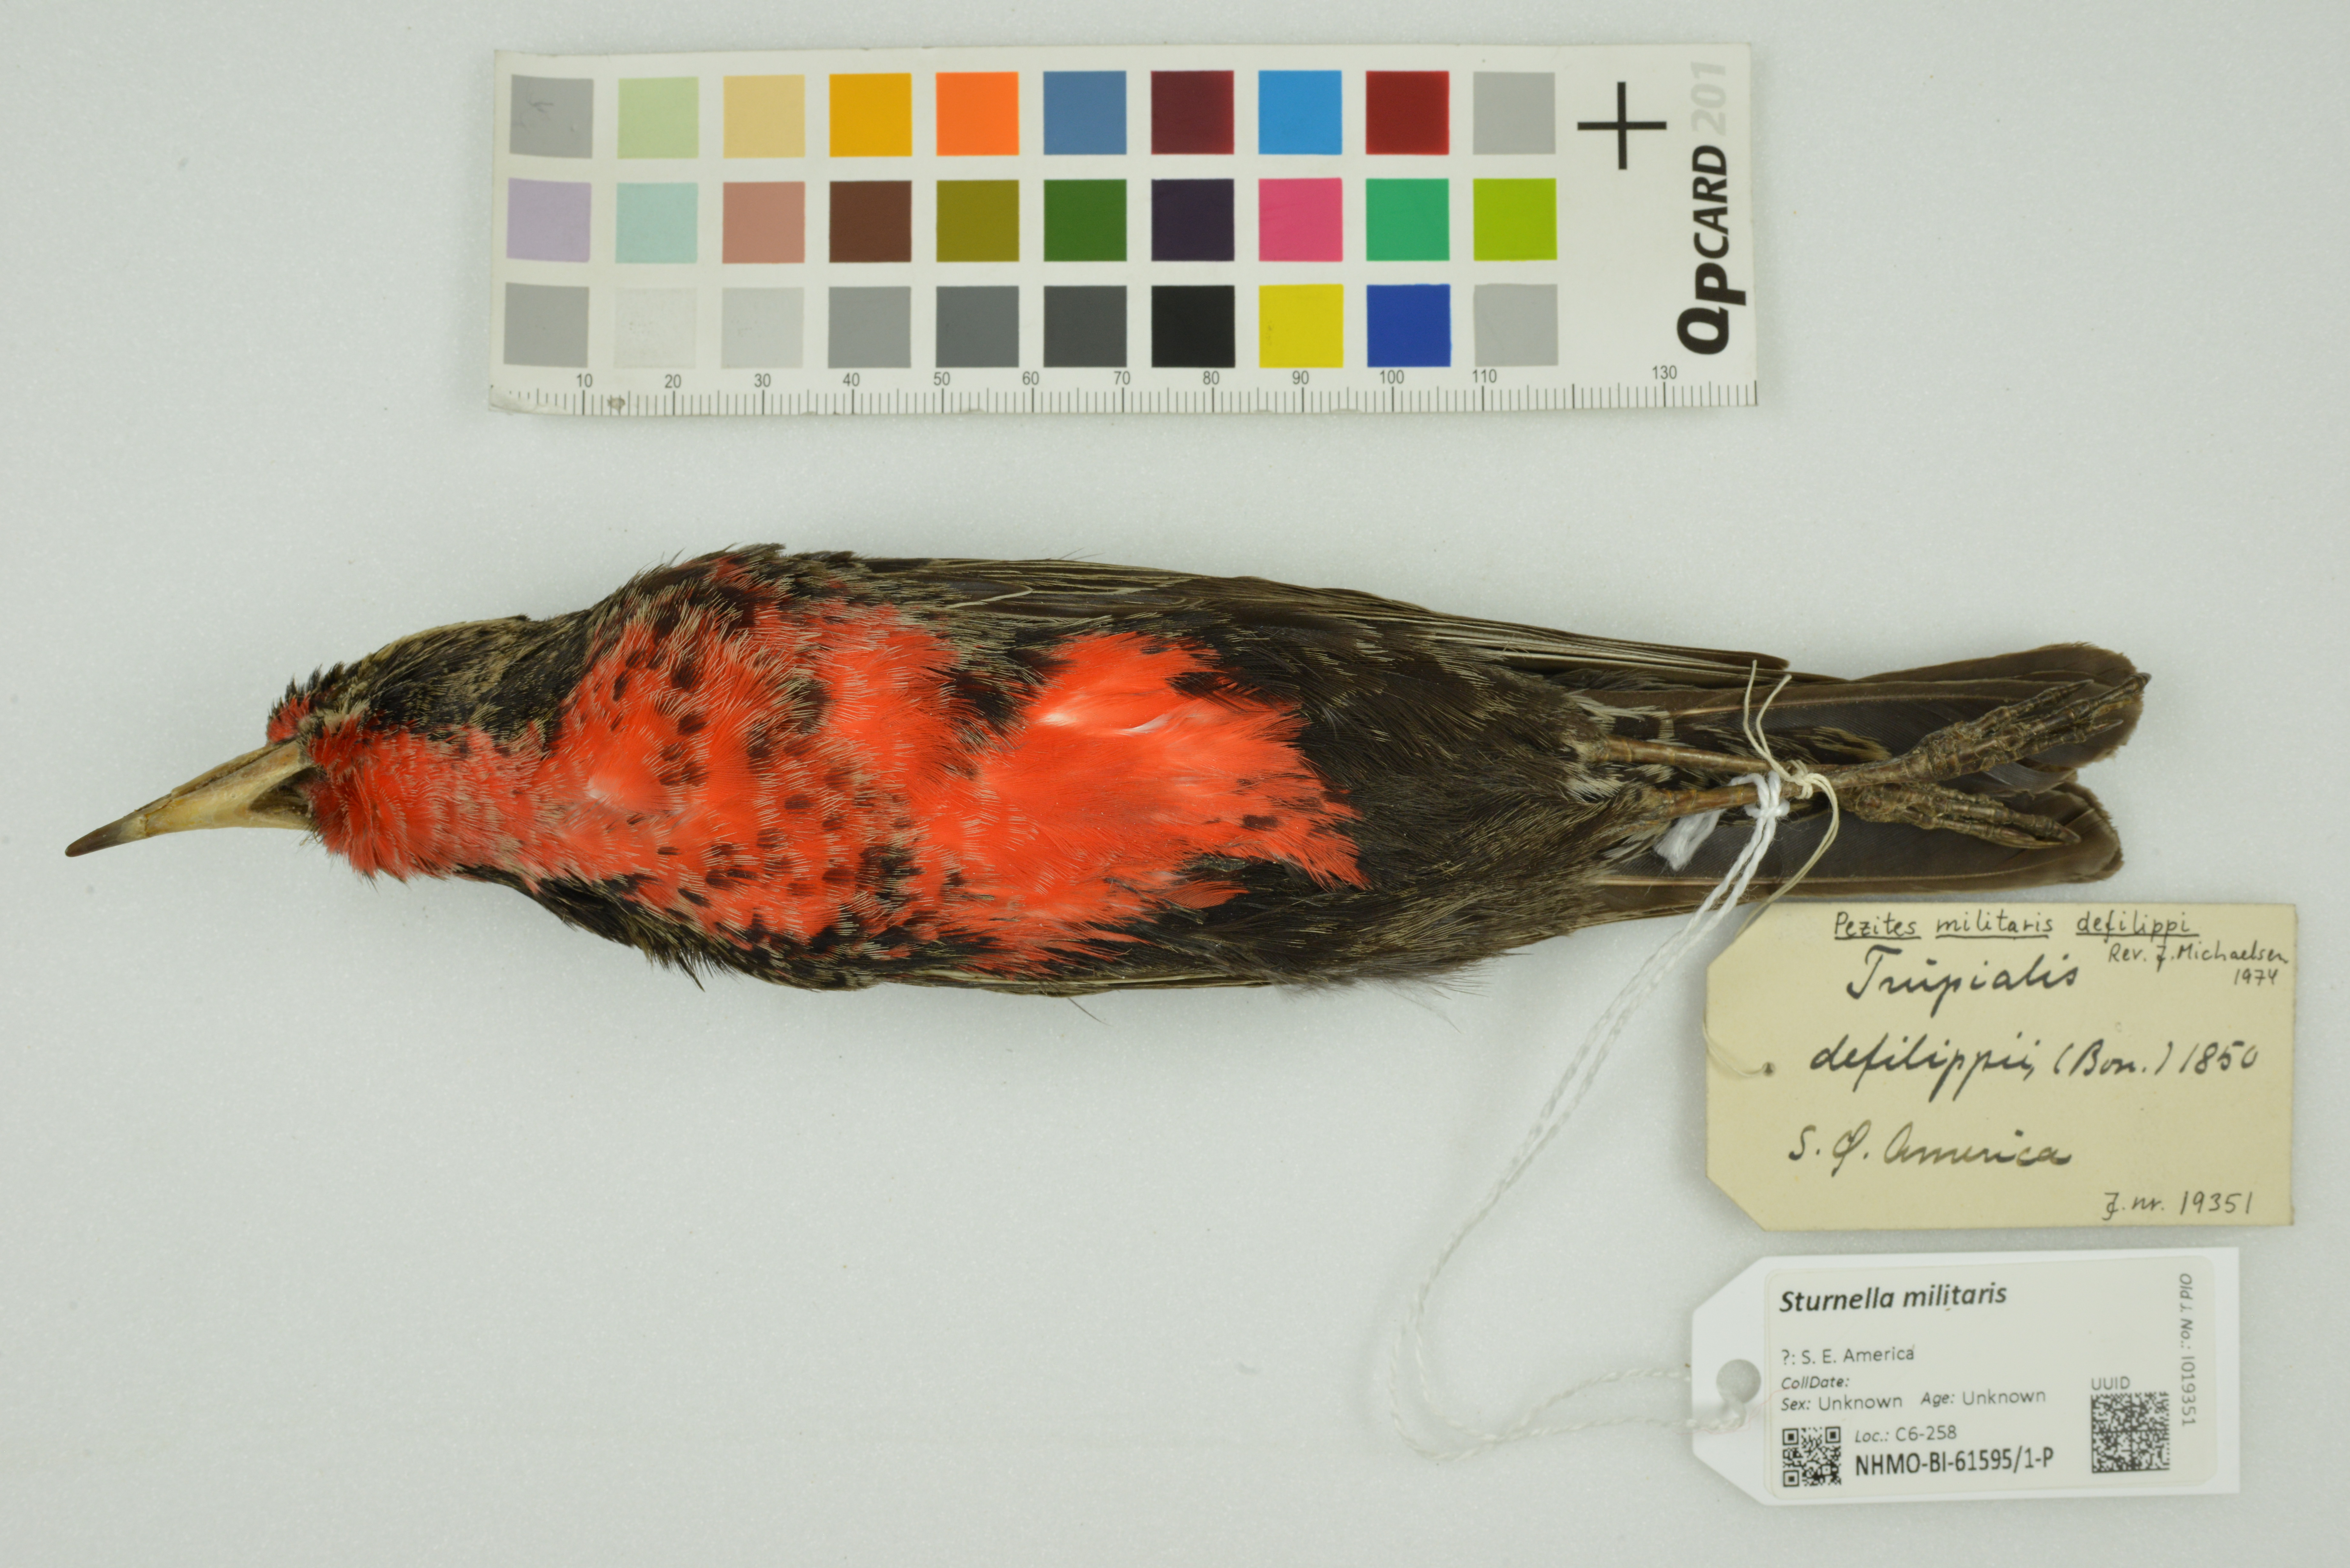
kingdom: Animalia
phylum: Chordata
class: Aves
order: Passeriformes
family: Icteridae
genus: Sturnella
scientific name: Sturnella militaris
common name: Red-breasted blackbird
